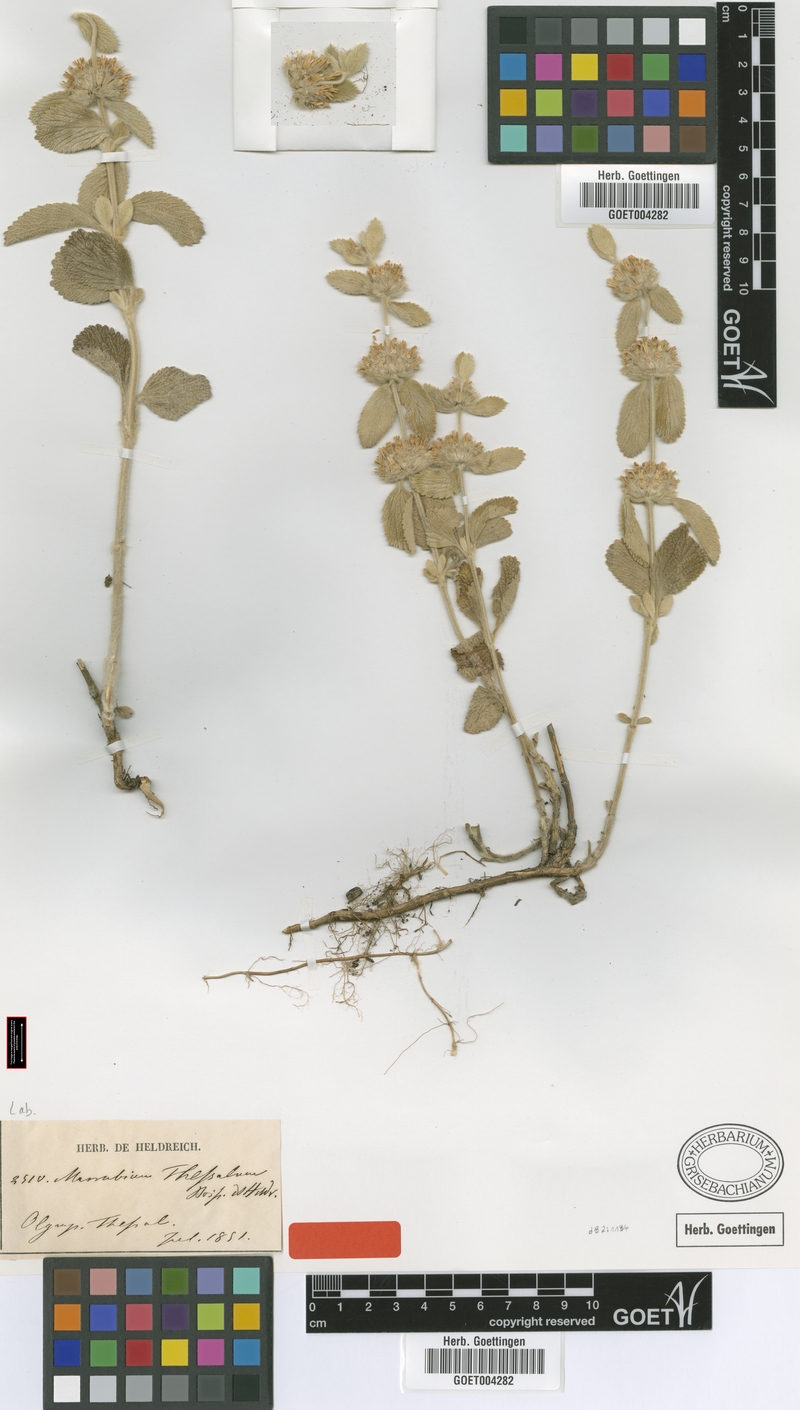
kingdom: Plantae
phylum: Tracheophyta
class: Magnoliopsida
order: Lamiales
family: Lamiaceae
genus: Marrubium
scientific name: Marrubium thessalum
